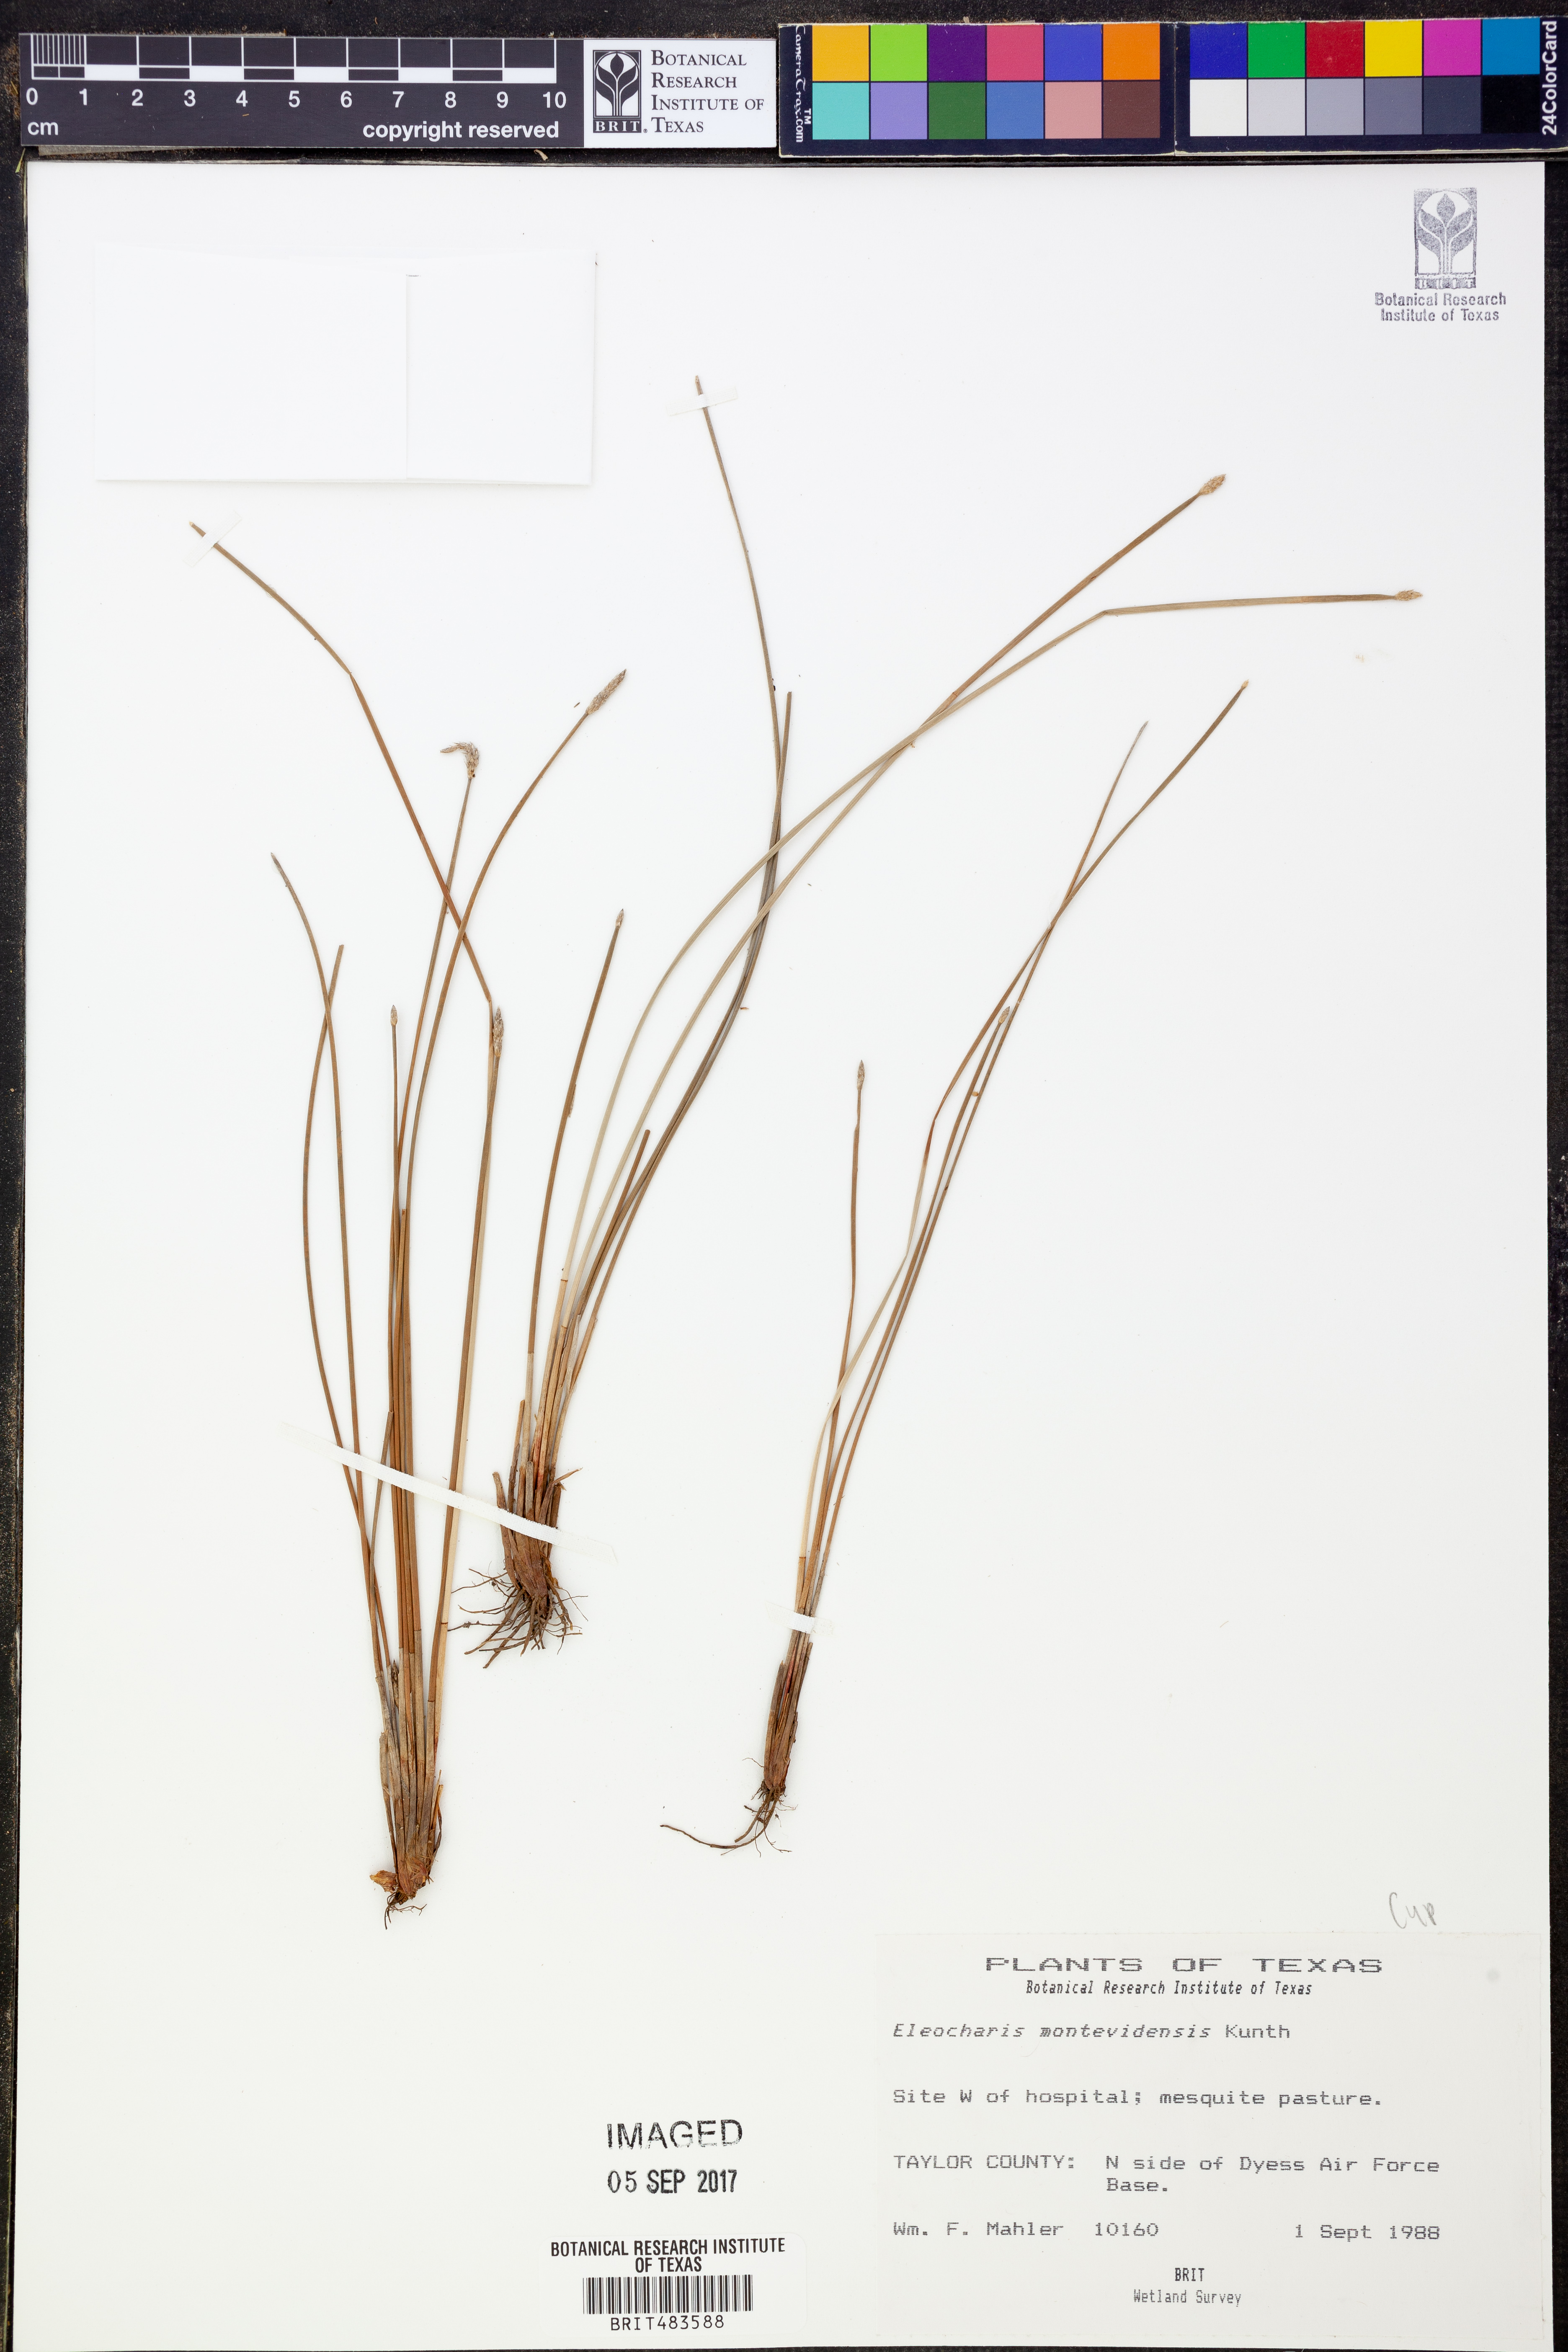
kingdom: Plantae
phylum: Tracheophyta
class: Liliopsida
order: Poales
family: Cyperaceae
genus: Eleocharis
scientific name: Eleocharis montevidensis
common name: Sand spike-rush
